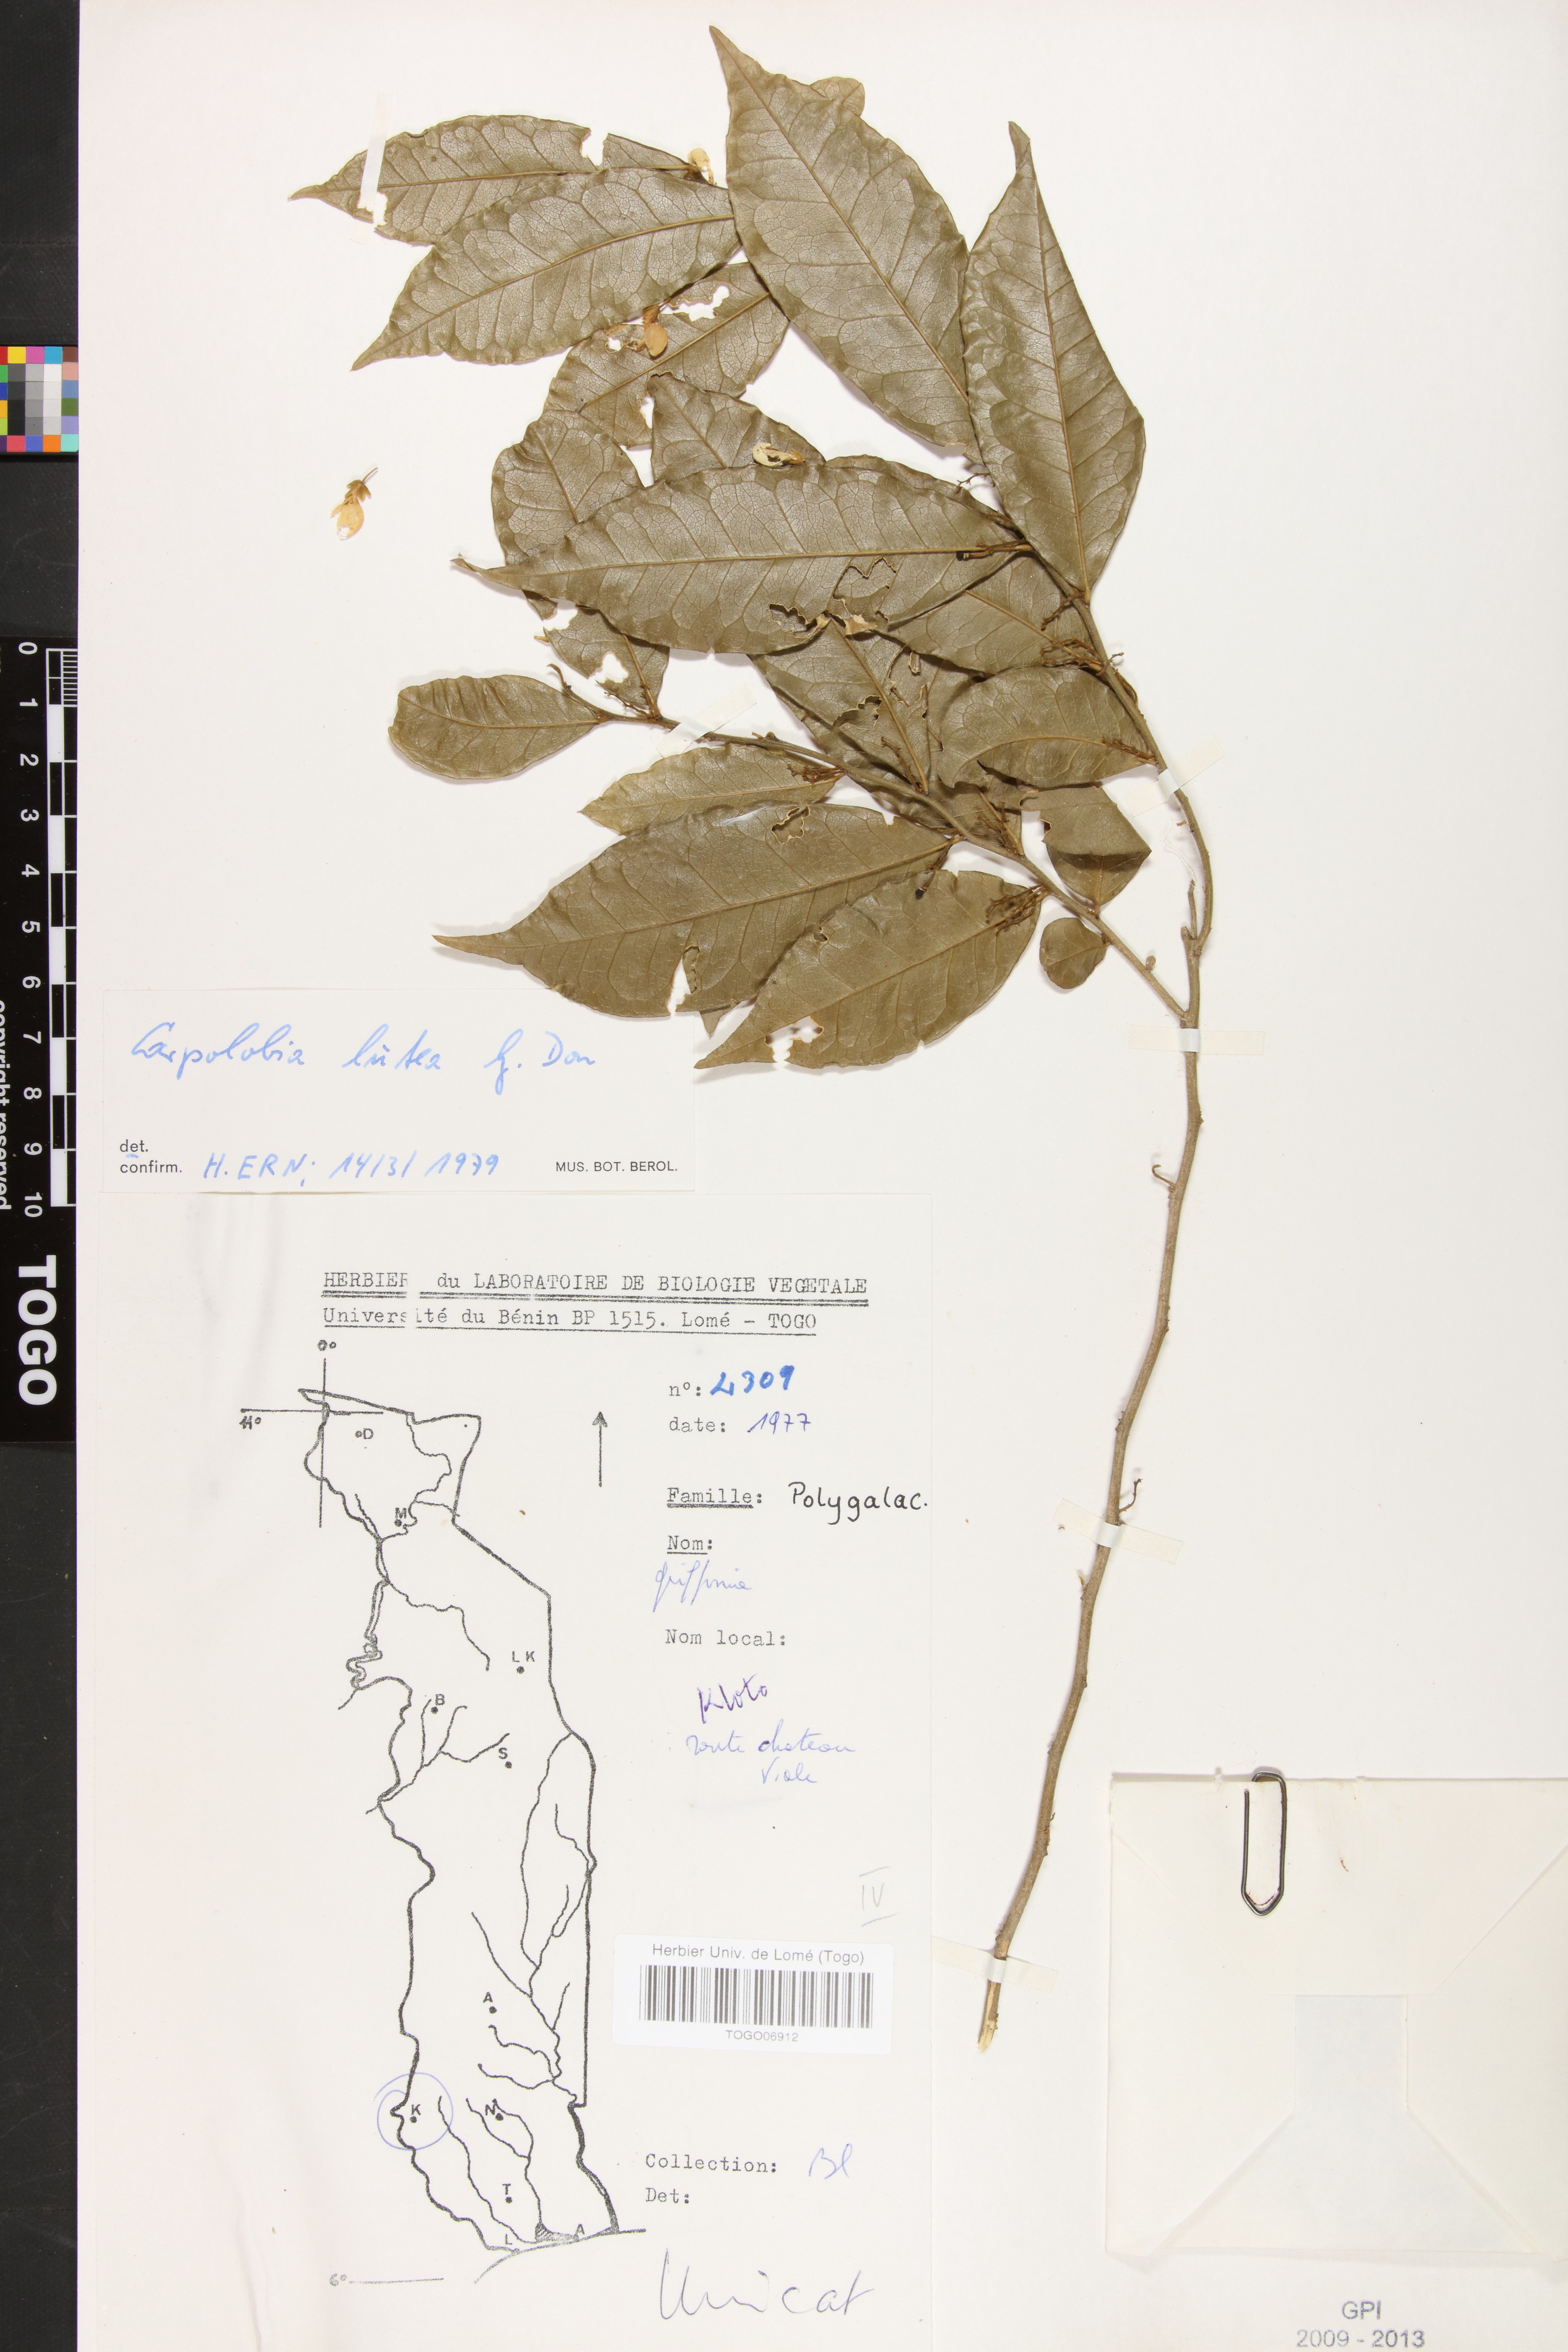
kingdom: Plantae
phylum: Tracheophyta
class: Magnoliopsida
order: Fabales
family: Polygalaceae
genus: Carpolobia
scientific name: Carpolobia lutea
